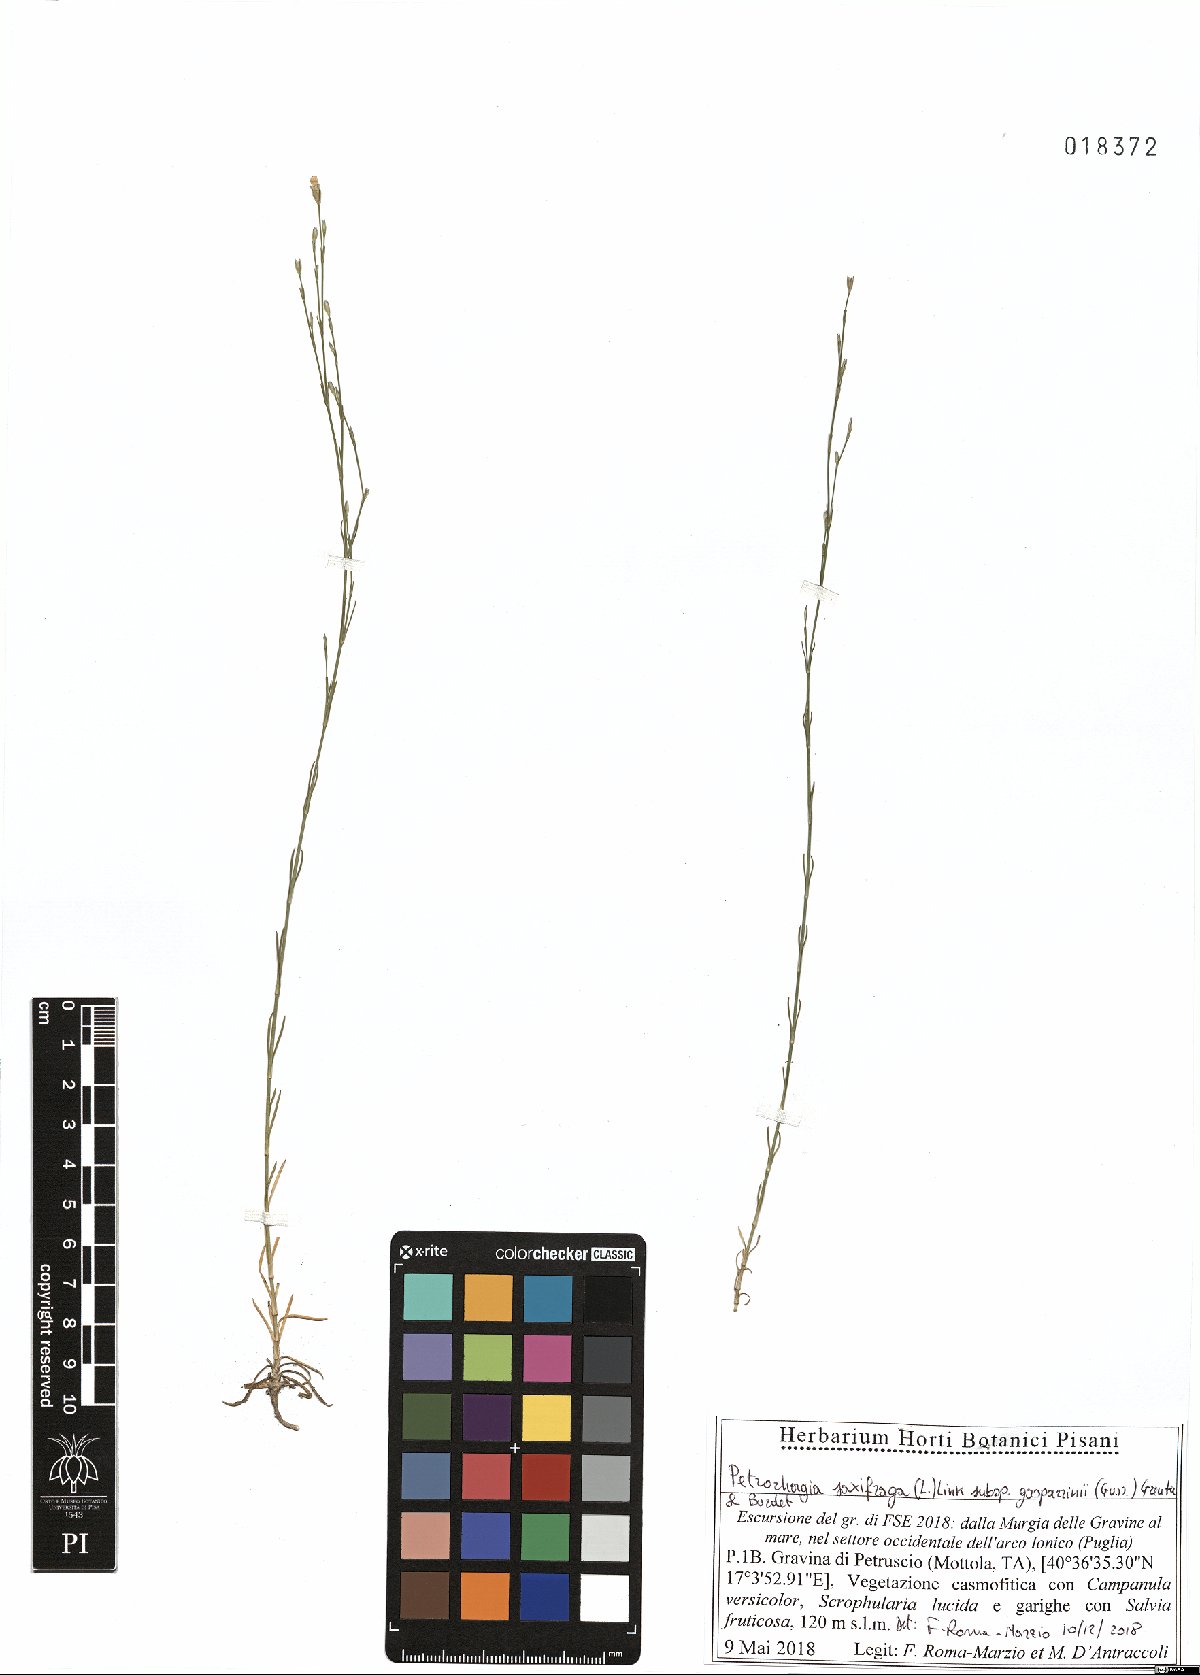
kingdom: Plantae
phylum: Tracheophyta
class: Magnoliopsida
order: Caryophyllales
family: Caryophyllaceae
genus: Petrorhagia
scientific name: Petrorhagia saxifraga
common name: Tunicflower
